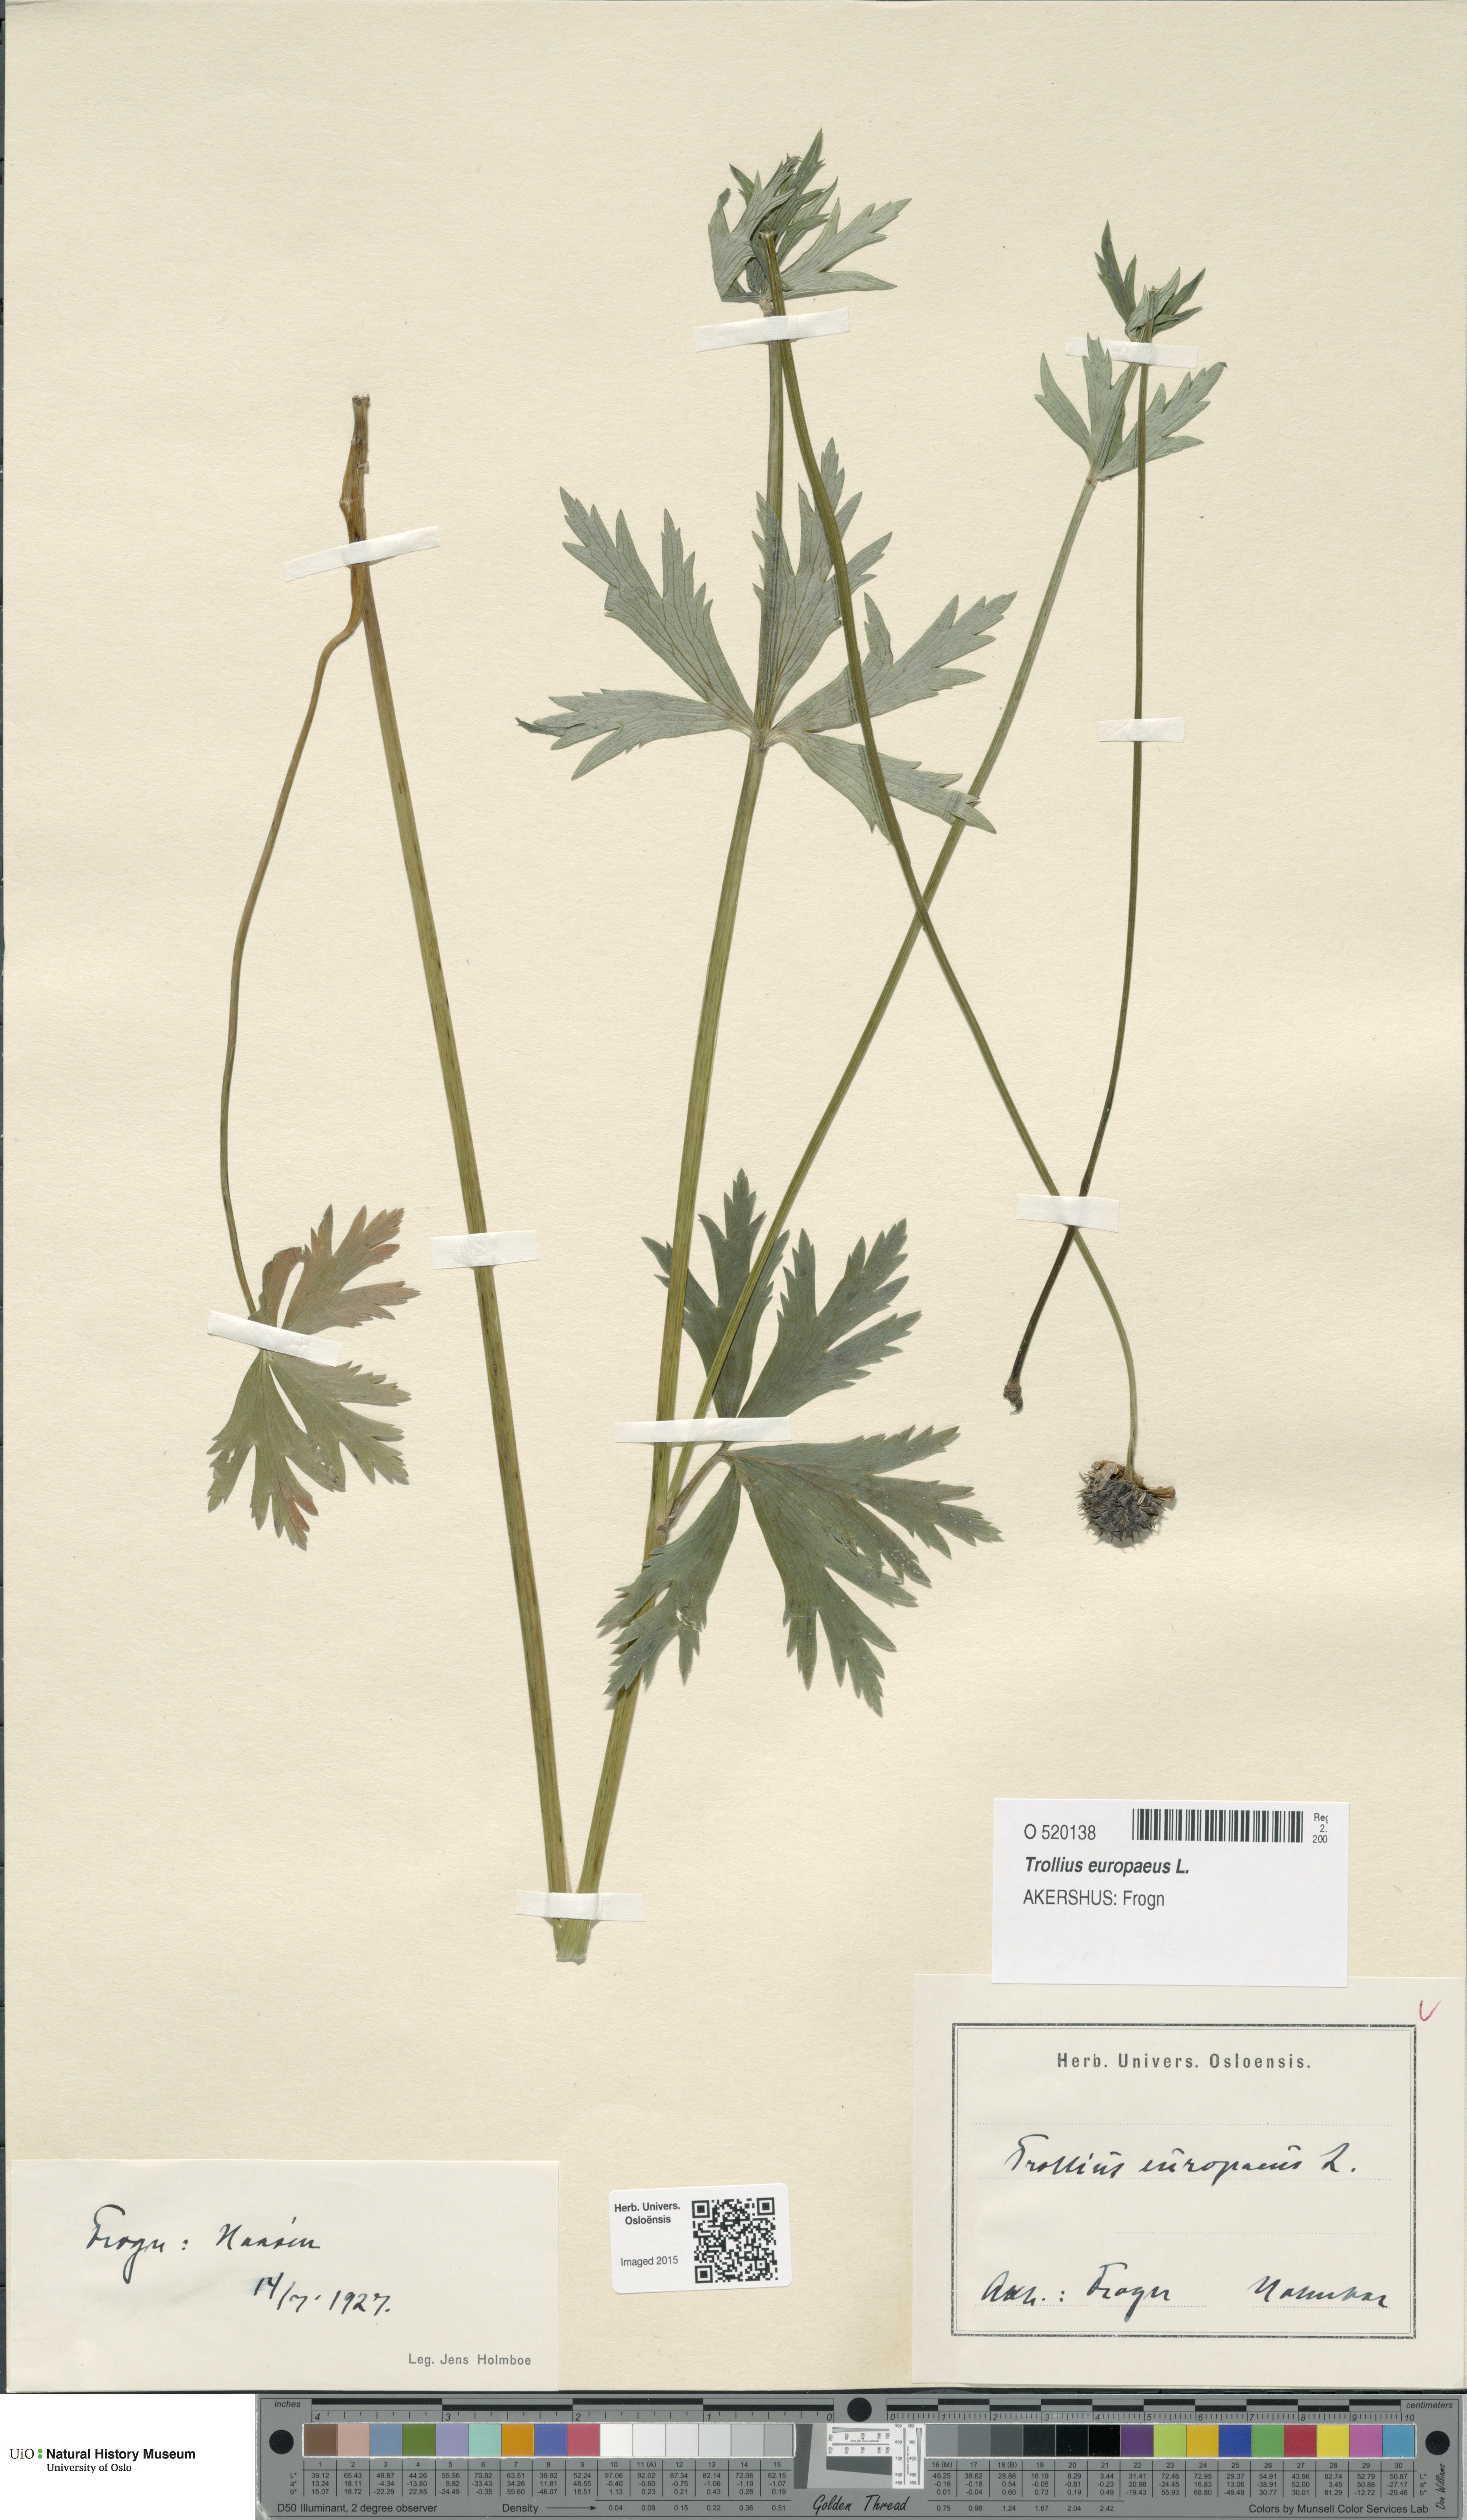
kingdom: Plantae
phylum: Tracheophyta
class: Magnoliopsida
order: Ranunculales
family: Ranunculaceae
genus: Trollius
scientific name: Trollius europaeus
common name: European globeflower
